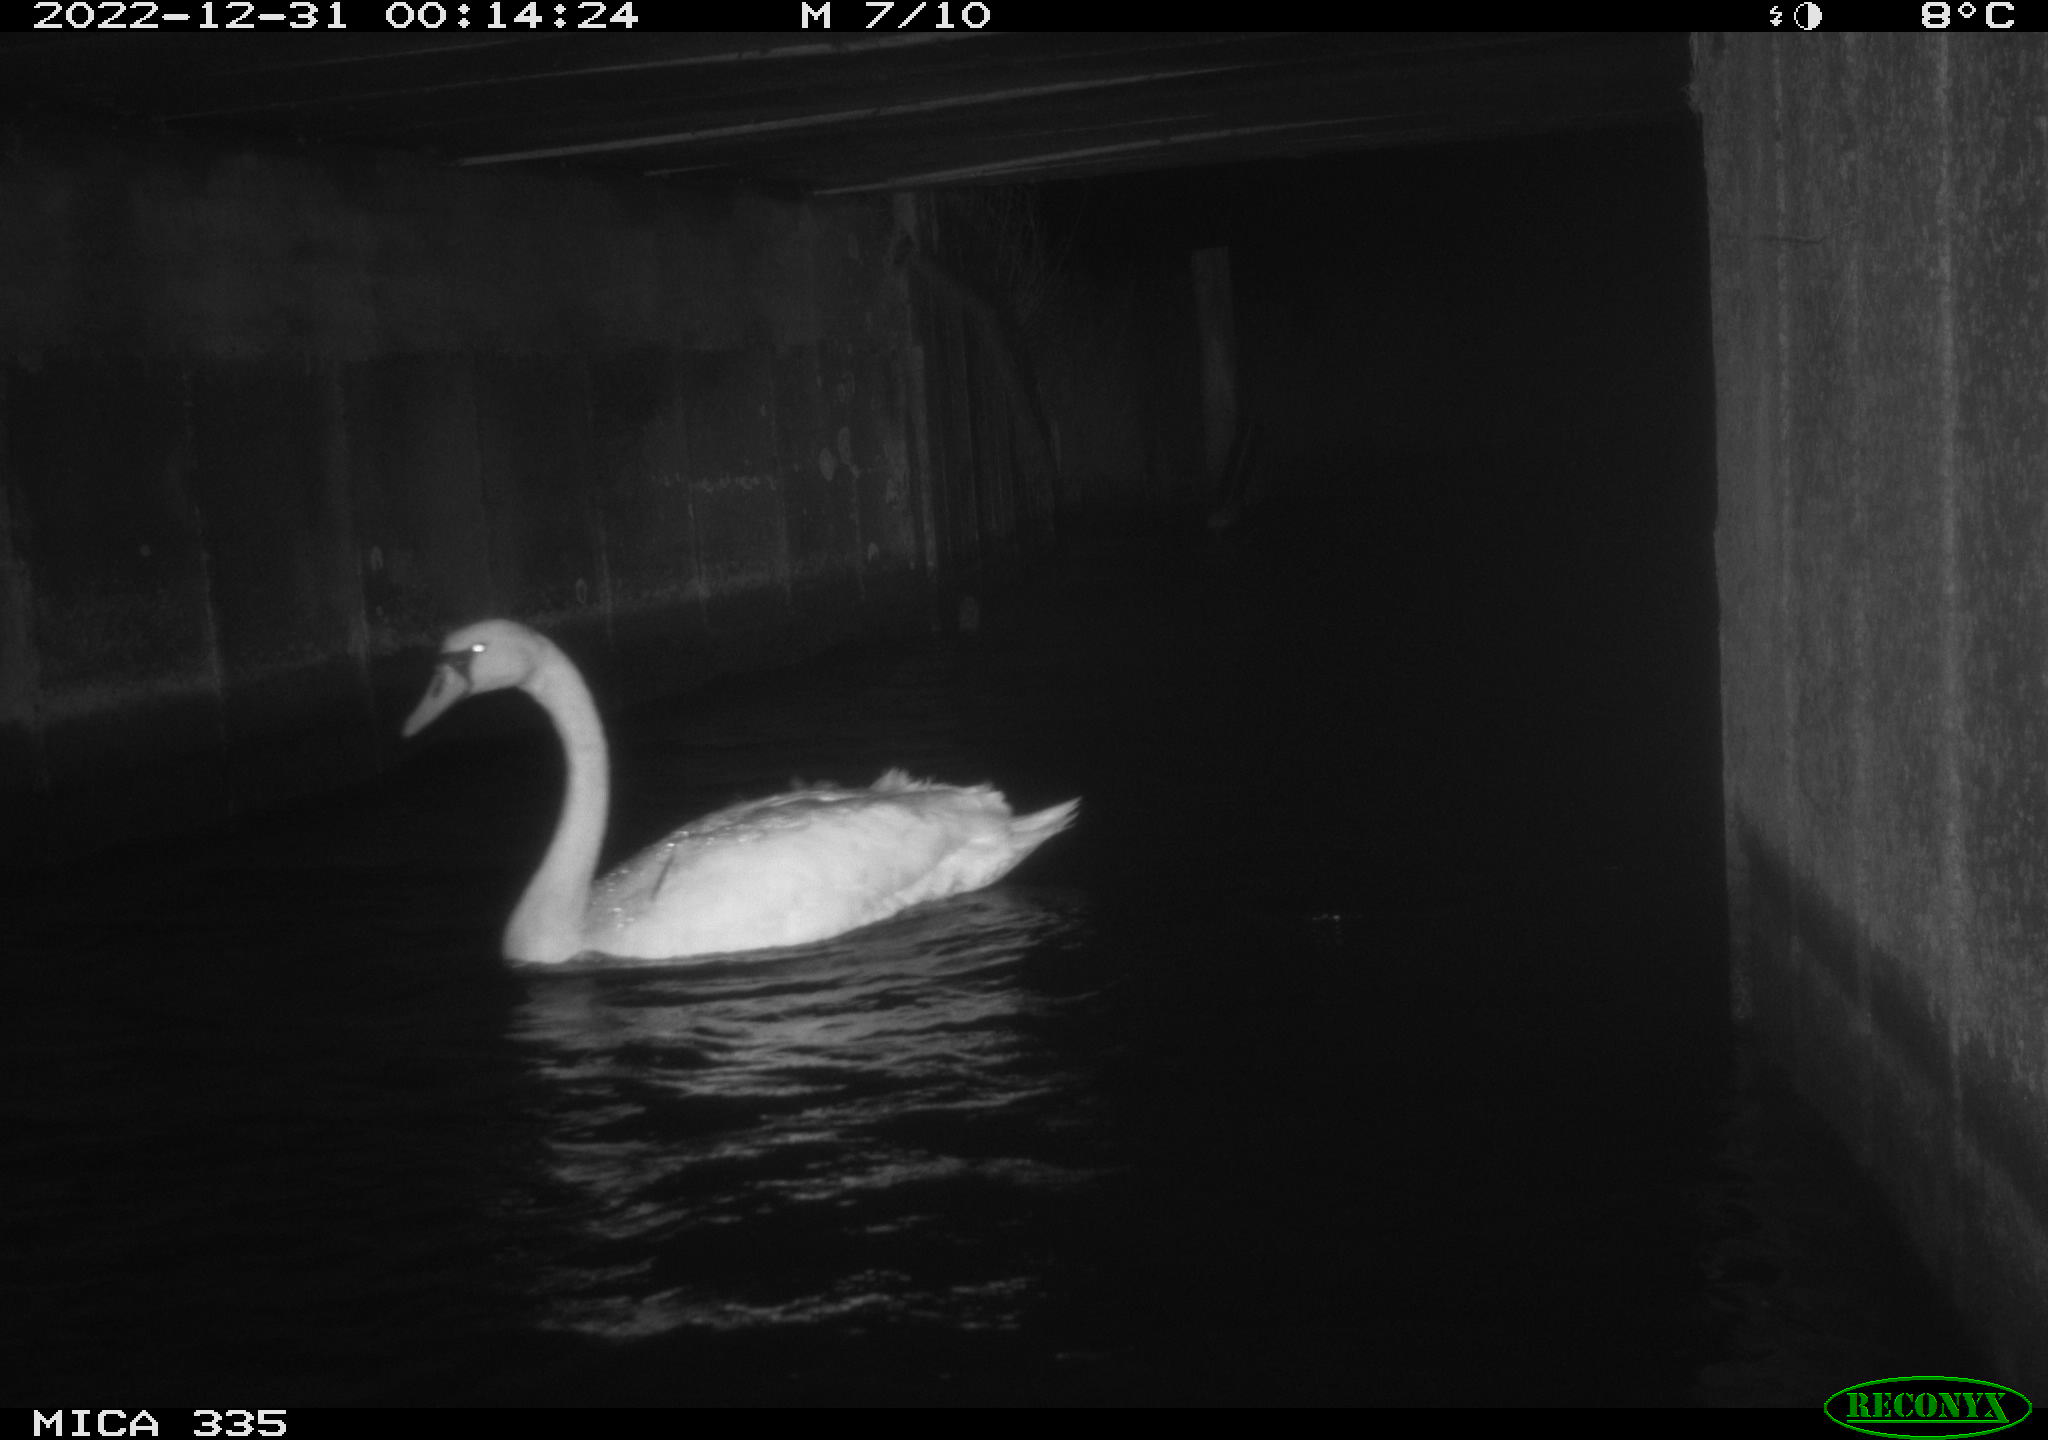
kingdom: Animalia
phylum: Chordata
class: Aves
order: Anseriformes
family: Anatidae
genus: Cygnus
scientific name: Cygnus olor
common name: Mute swan
